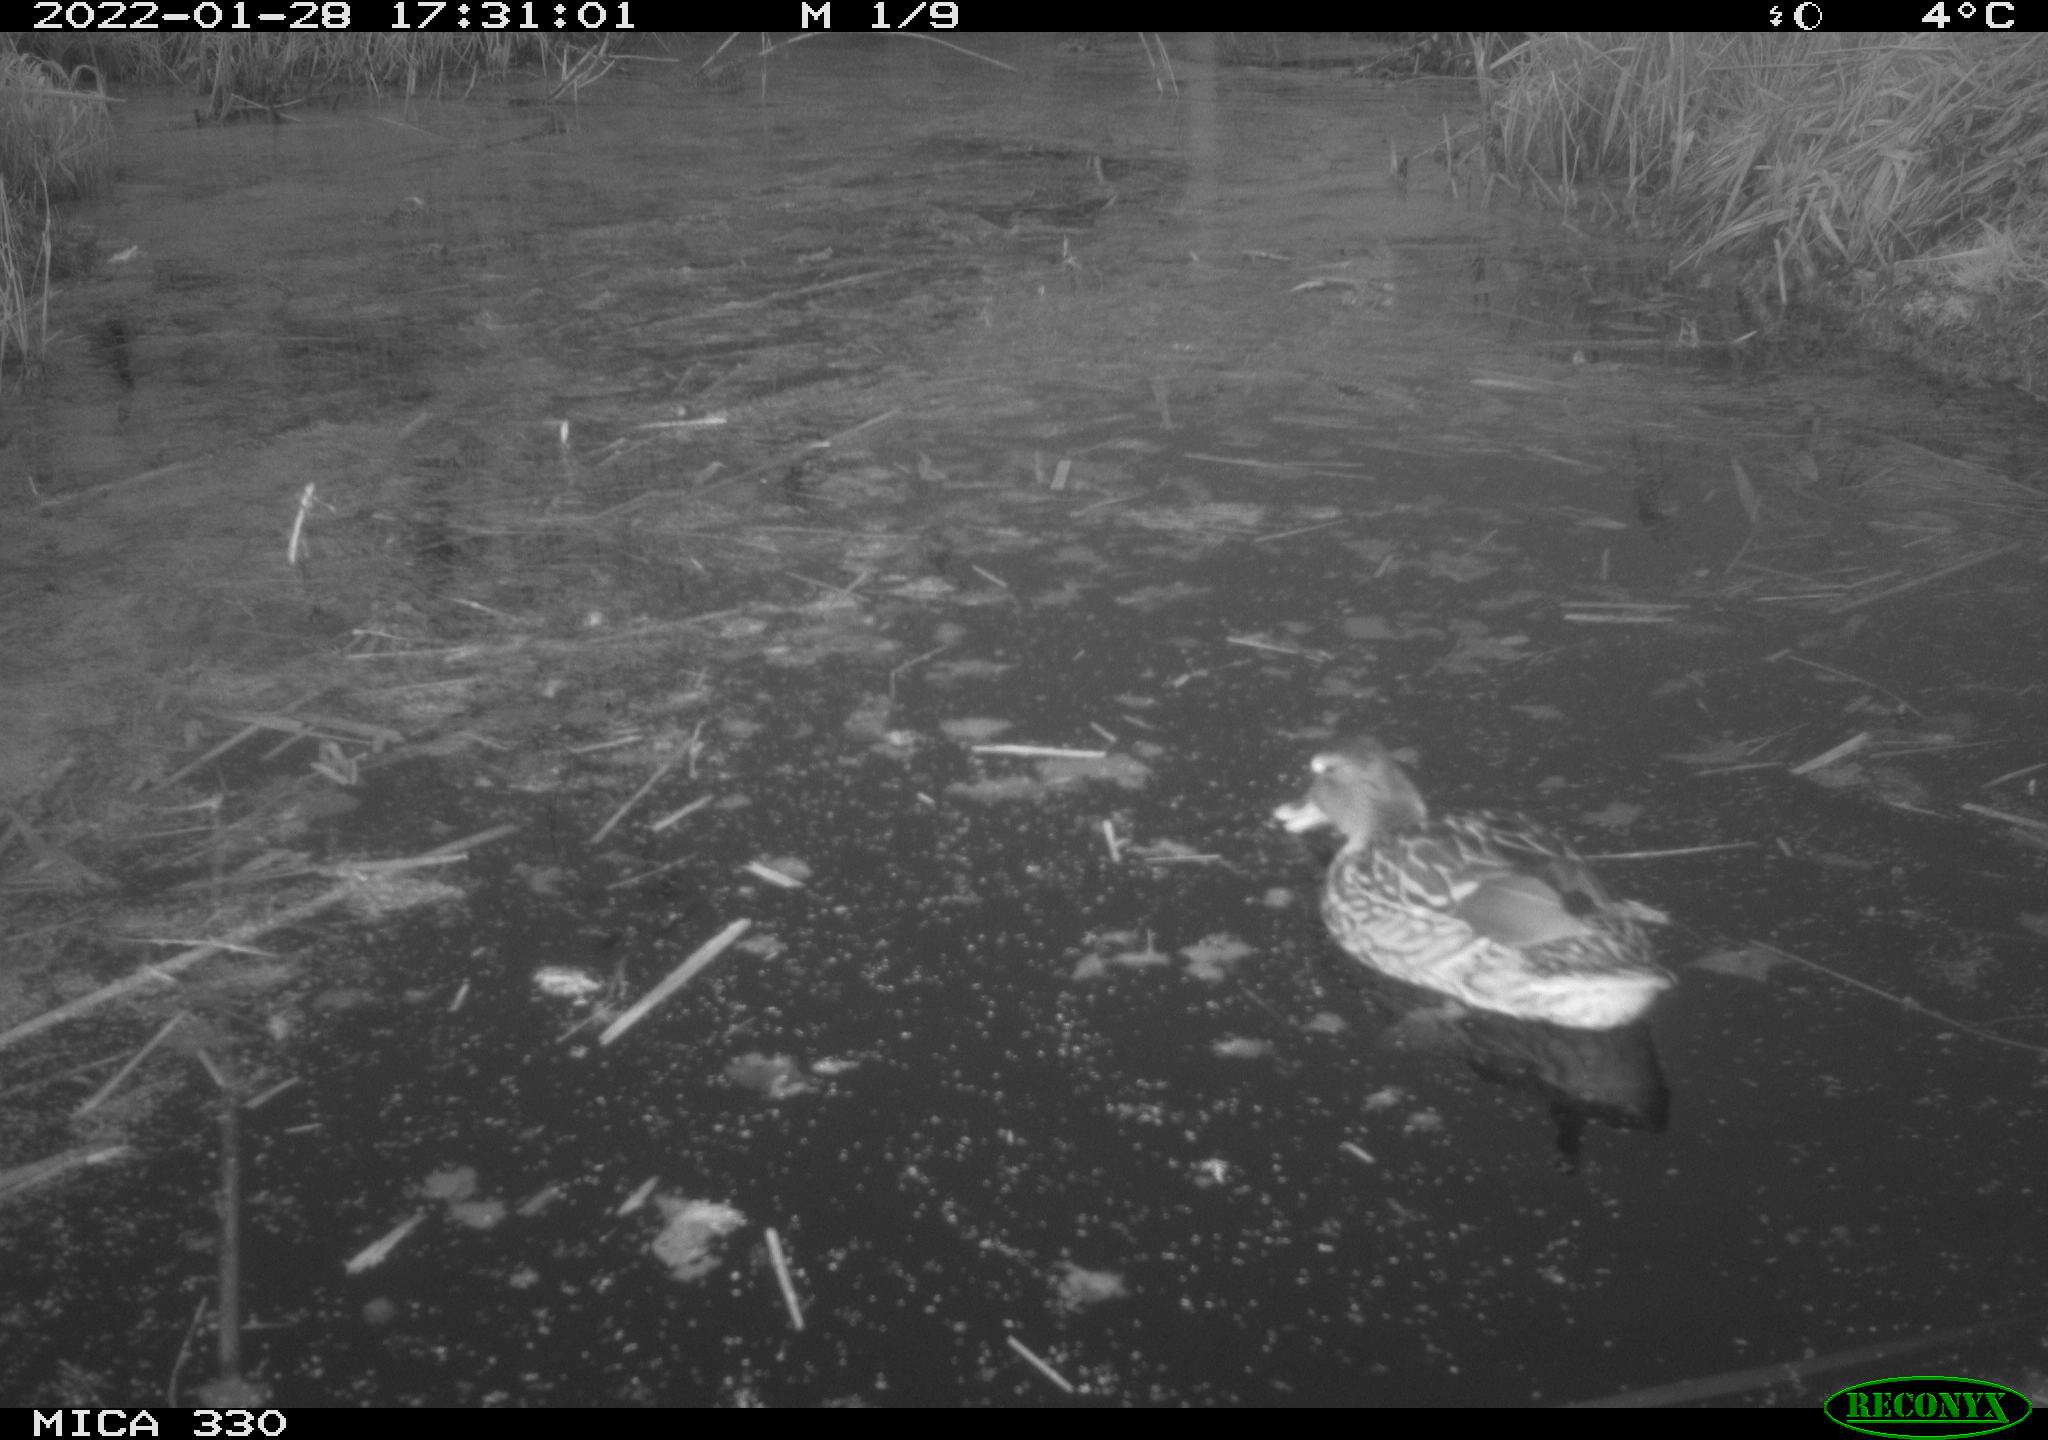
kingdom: Animalia
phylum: Chordata
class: Aves
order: Anseriformes
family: Anatidae
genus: Anas
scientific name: Anas platyrhynchos
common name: Mallard
